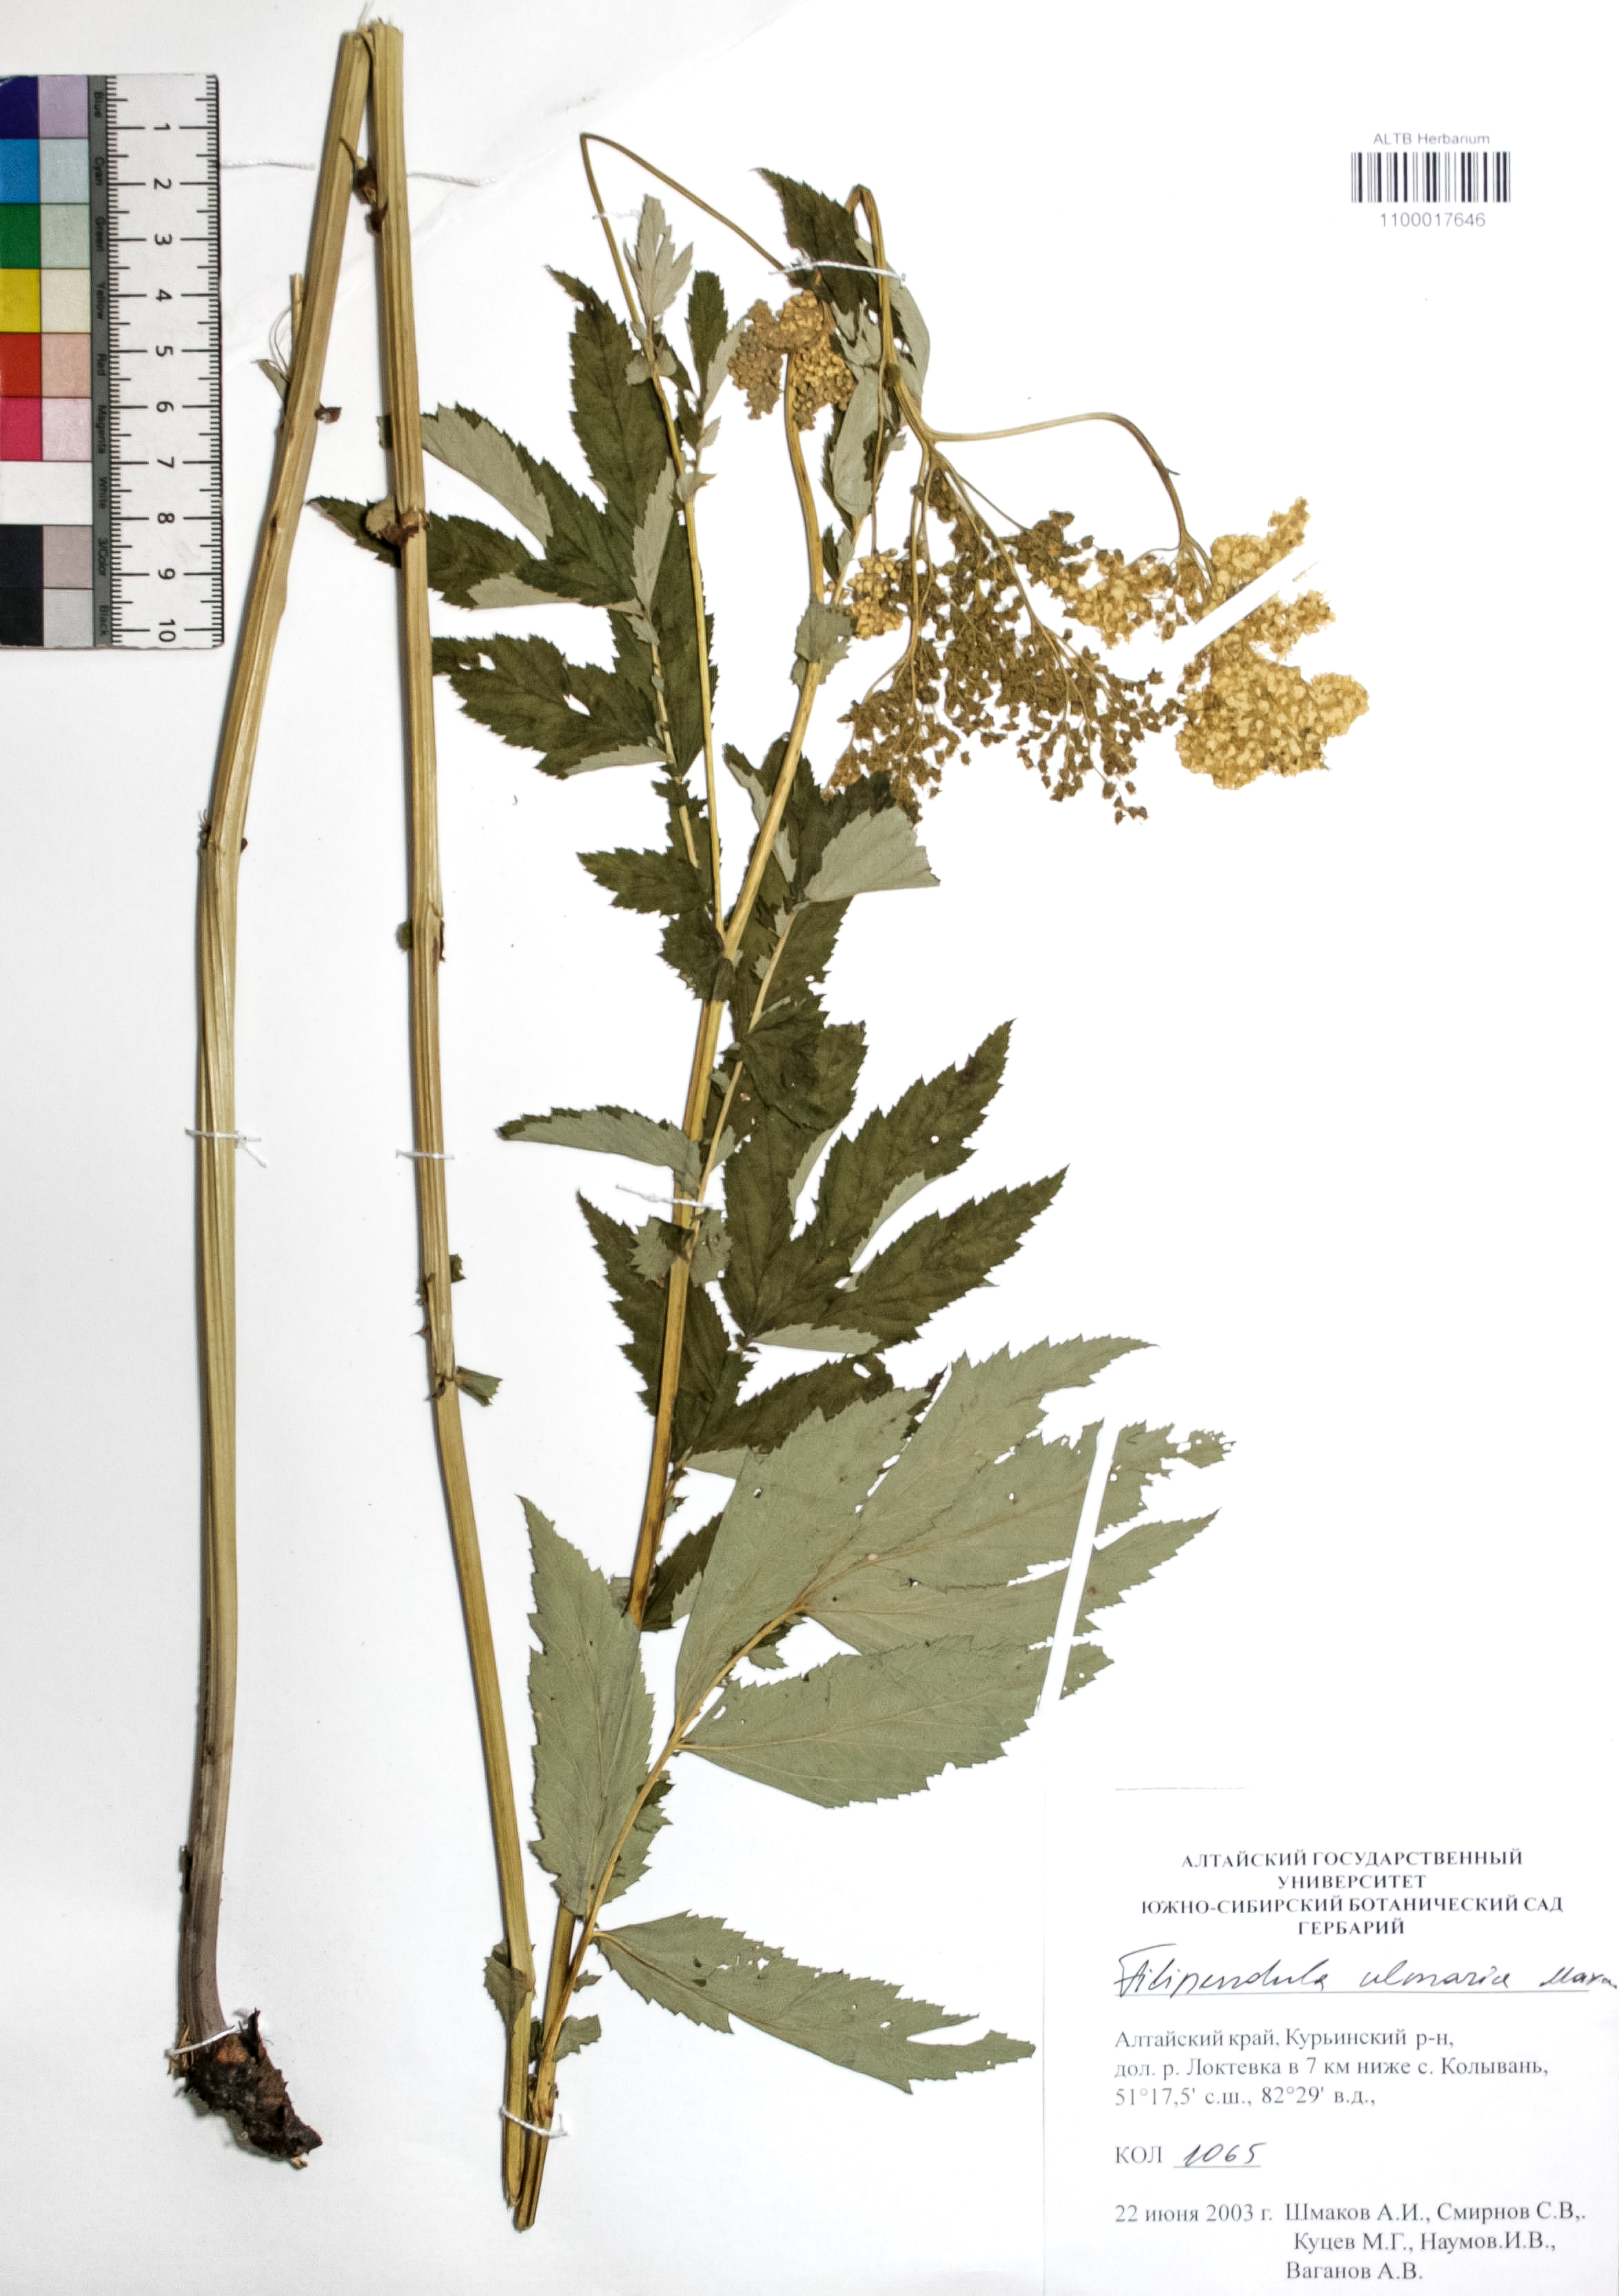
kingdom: Plantae
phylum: Tracheophyta
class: Magnoliopsida
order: Rosales
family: Rosaceae
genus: Filipendula
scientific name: Filipendula ulmaria
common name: Meadowsweet
